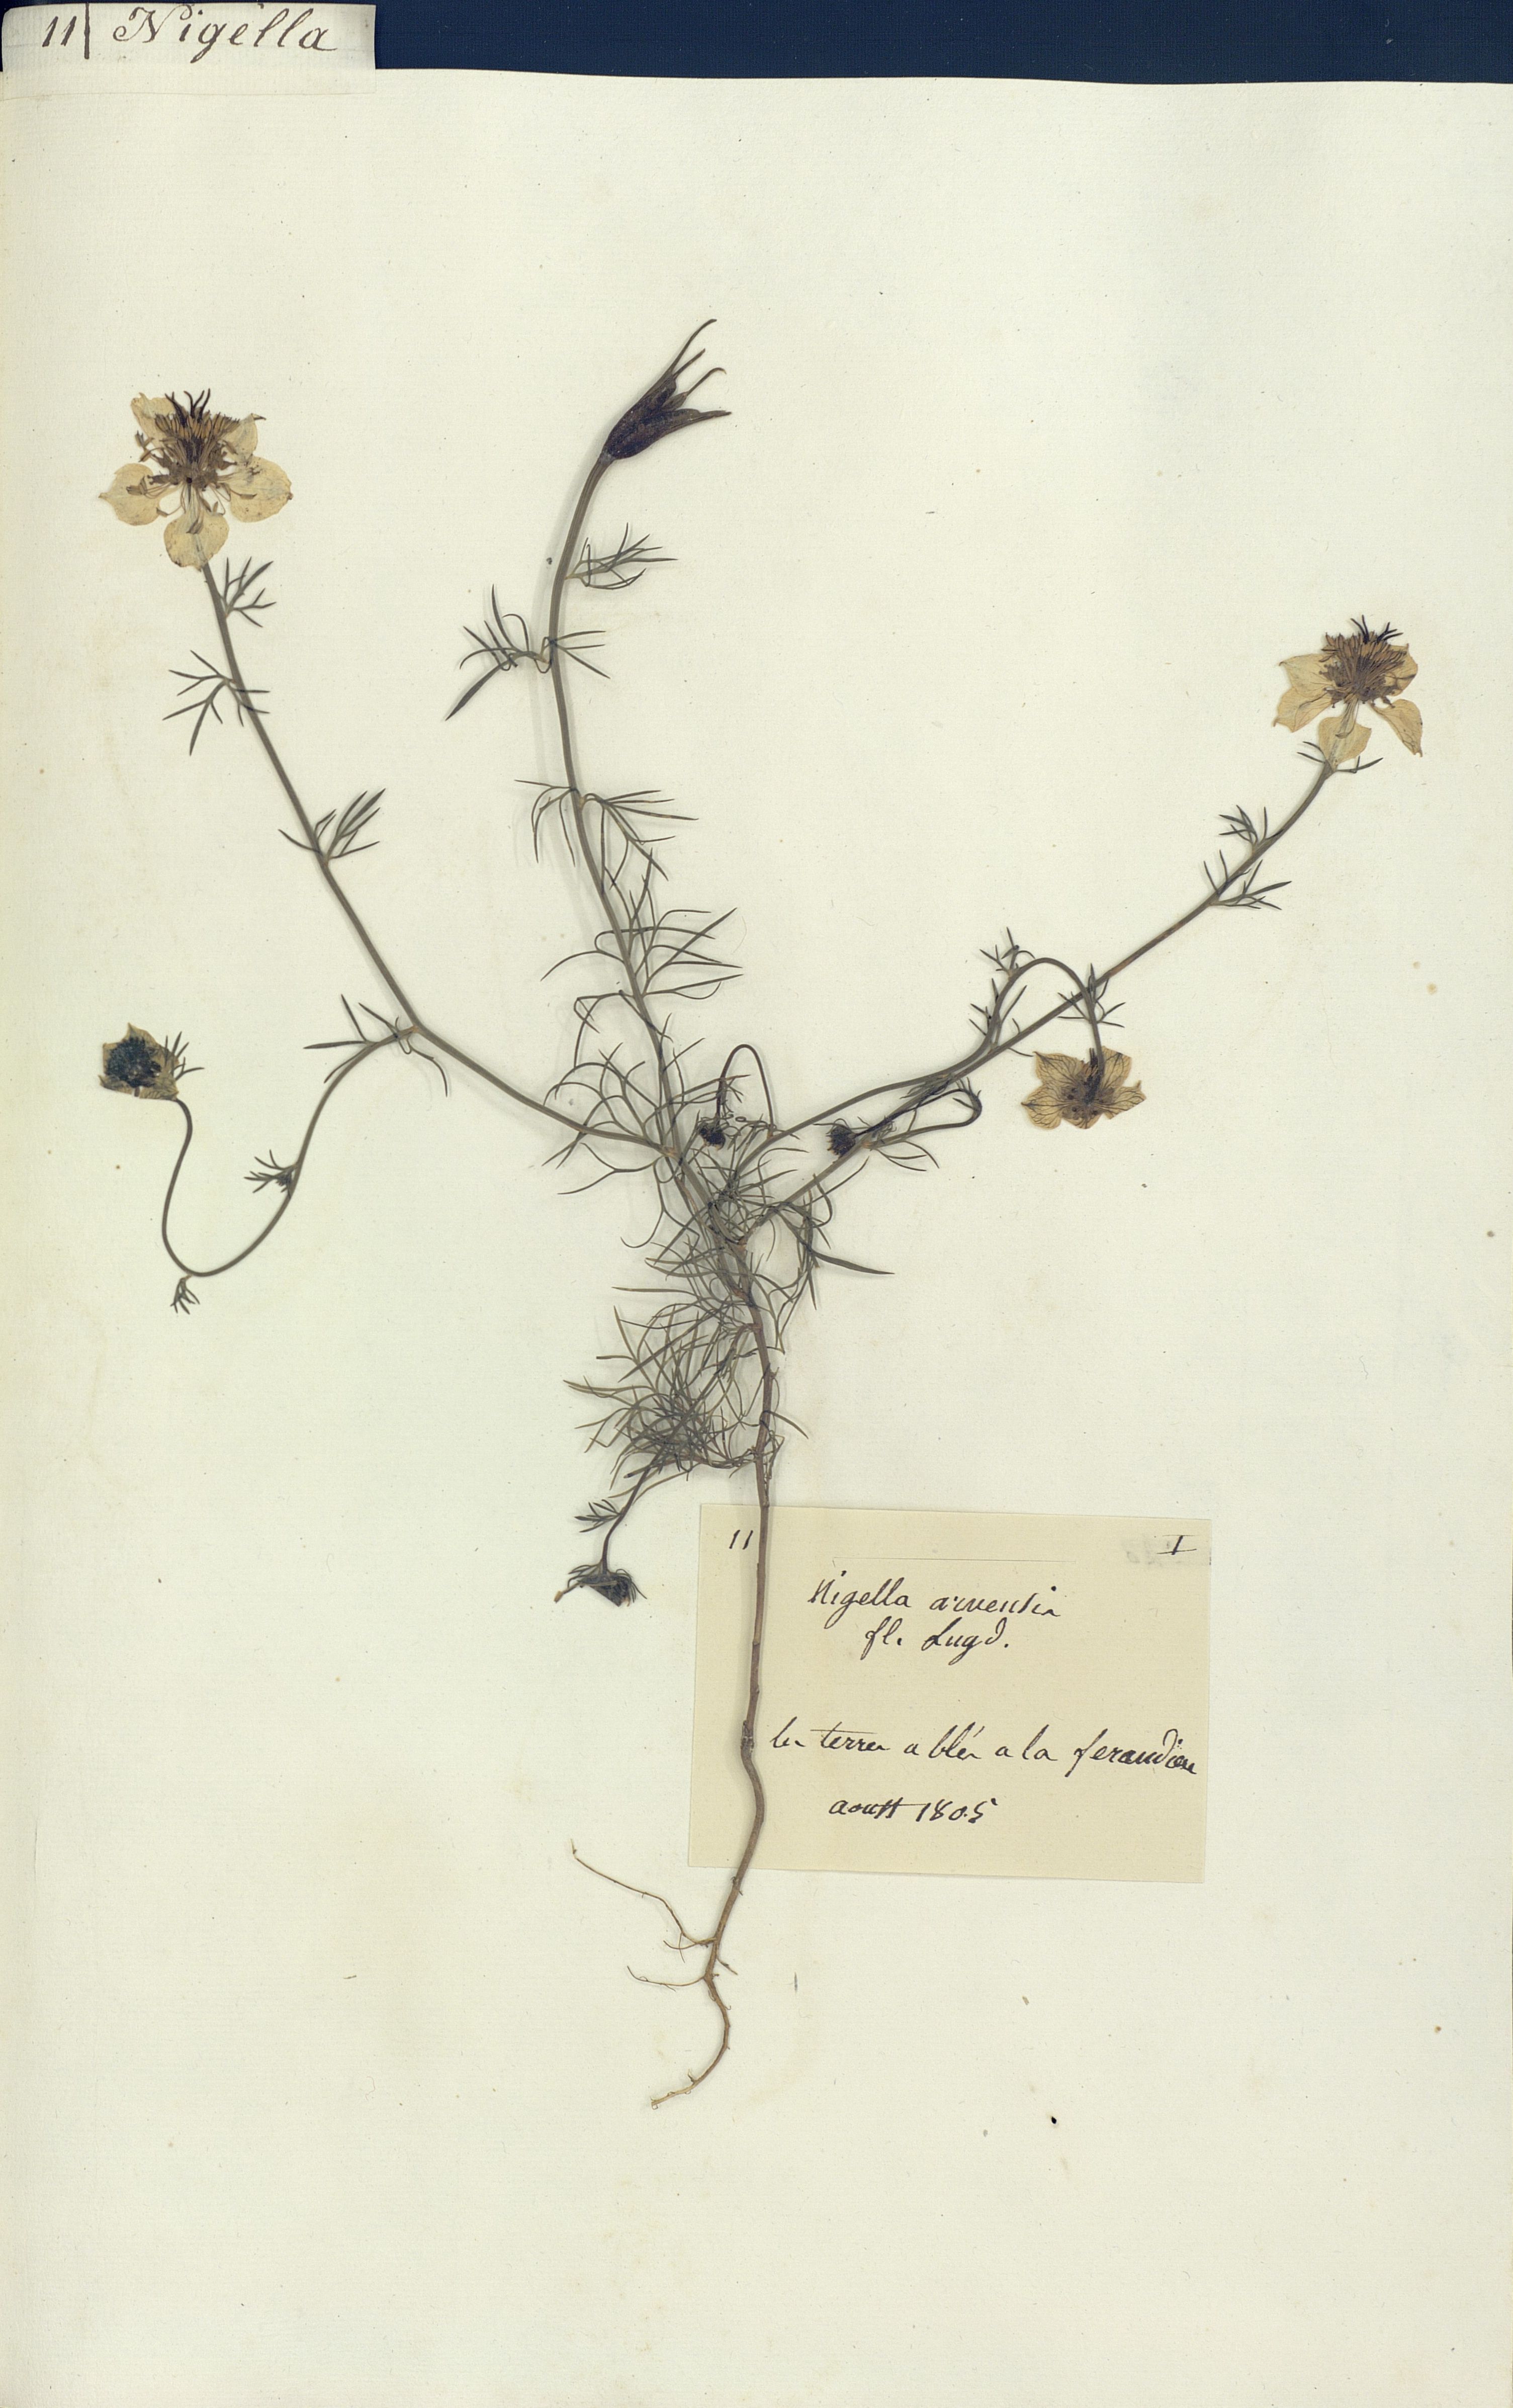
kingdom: Plantae
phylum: Tracheophyta
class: Magnoliopsida
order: Ranunculales
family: Ranunculaceae
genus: Nigella
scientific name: Nigella arvensis
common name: Wild fennel-flower
